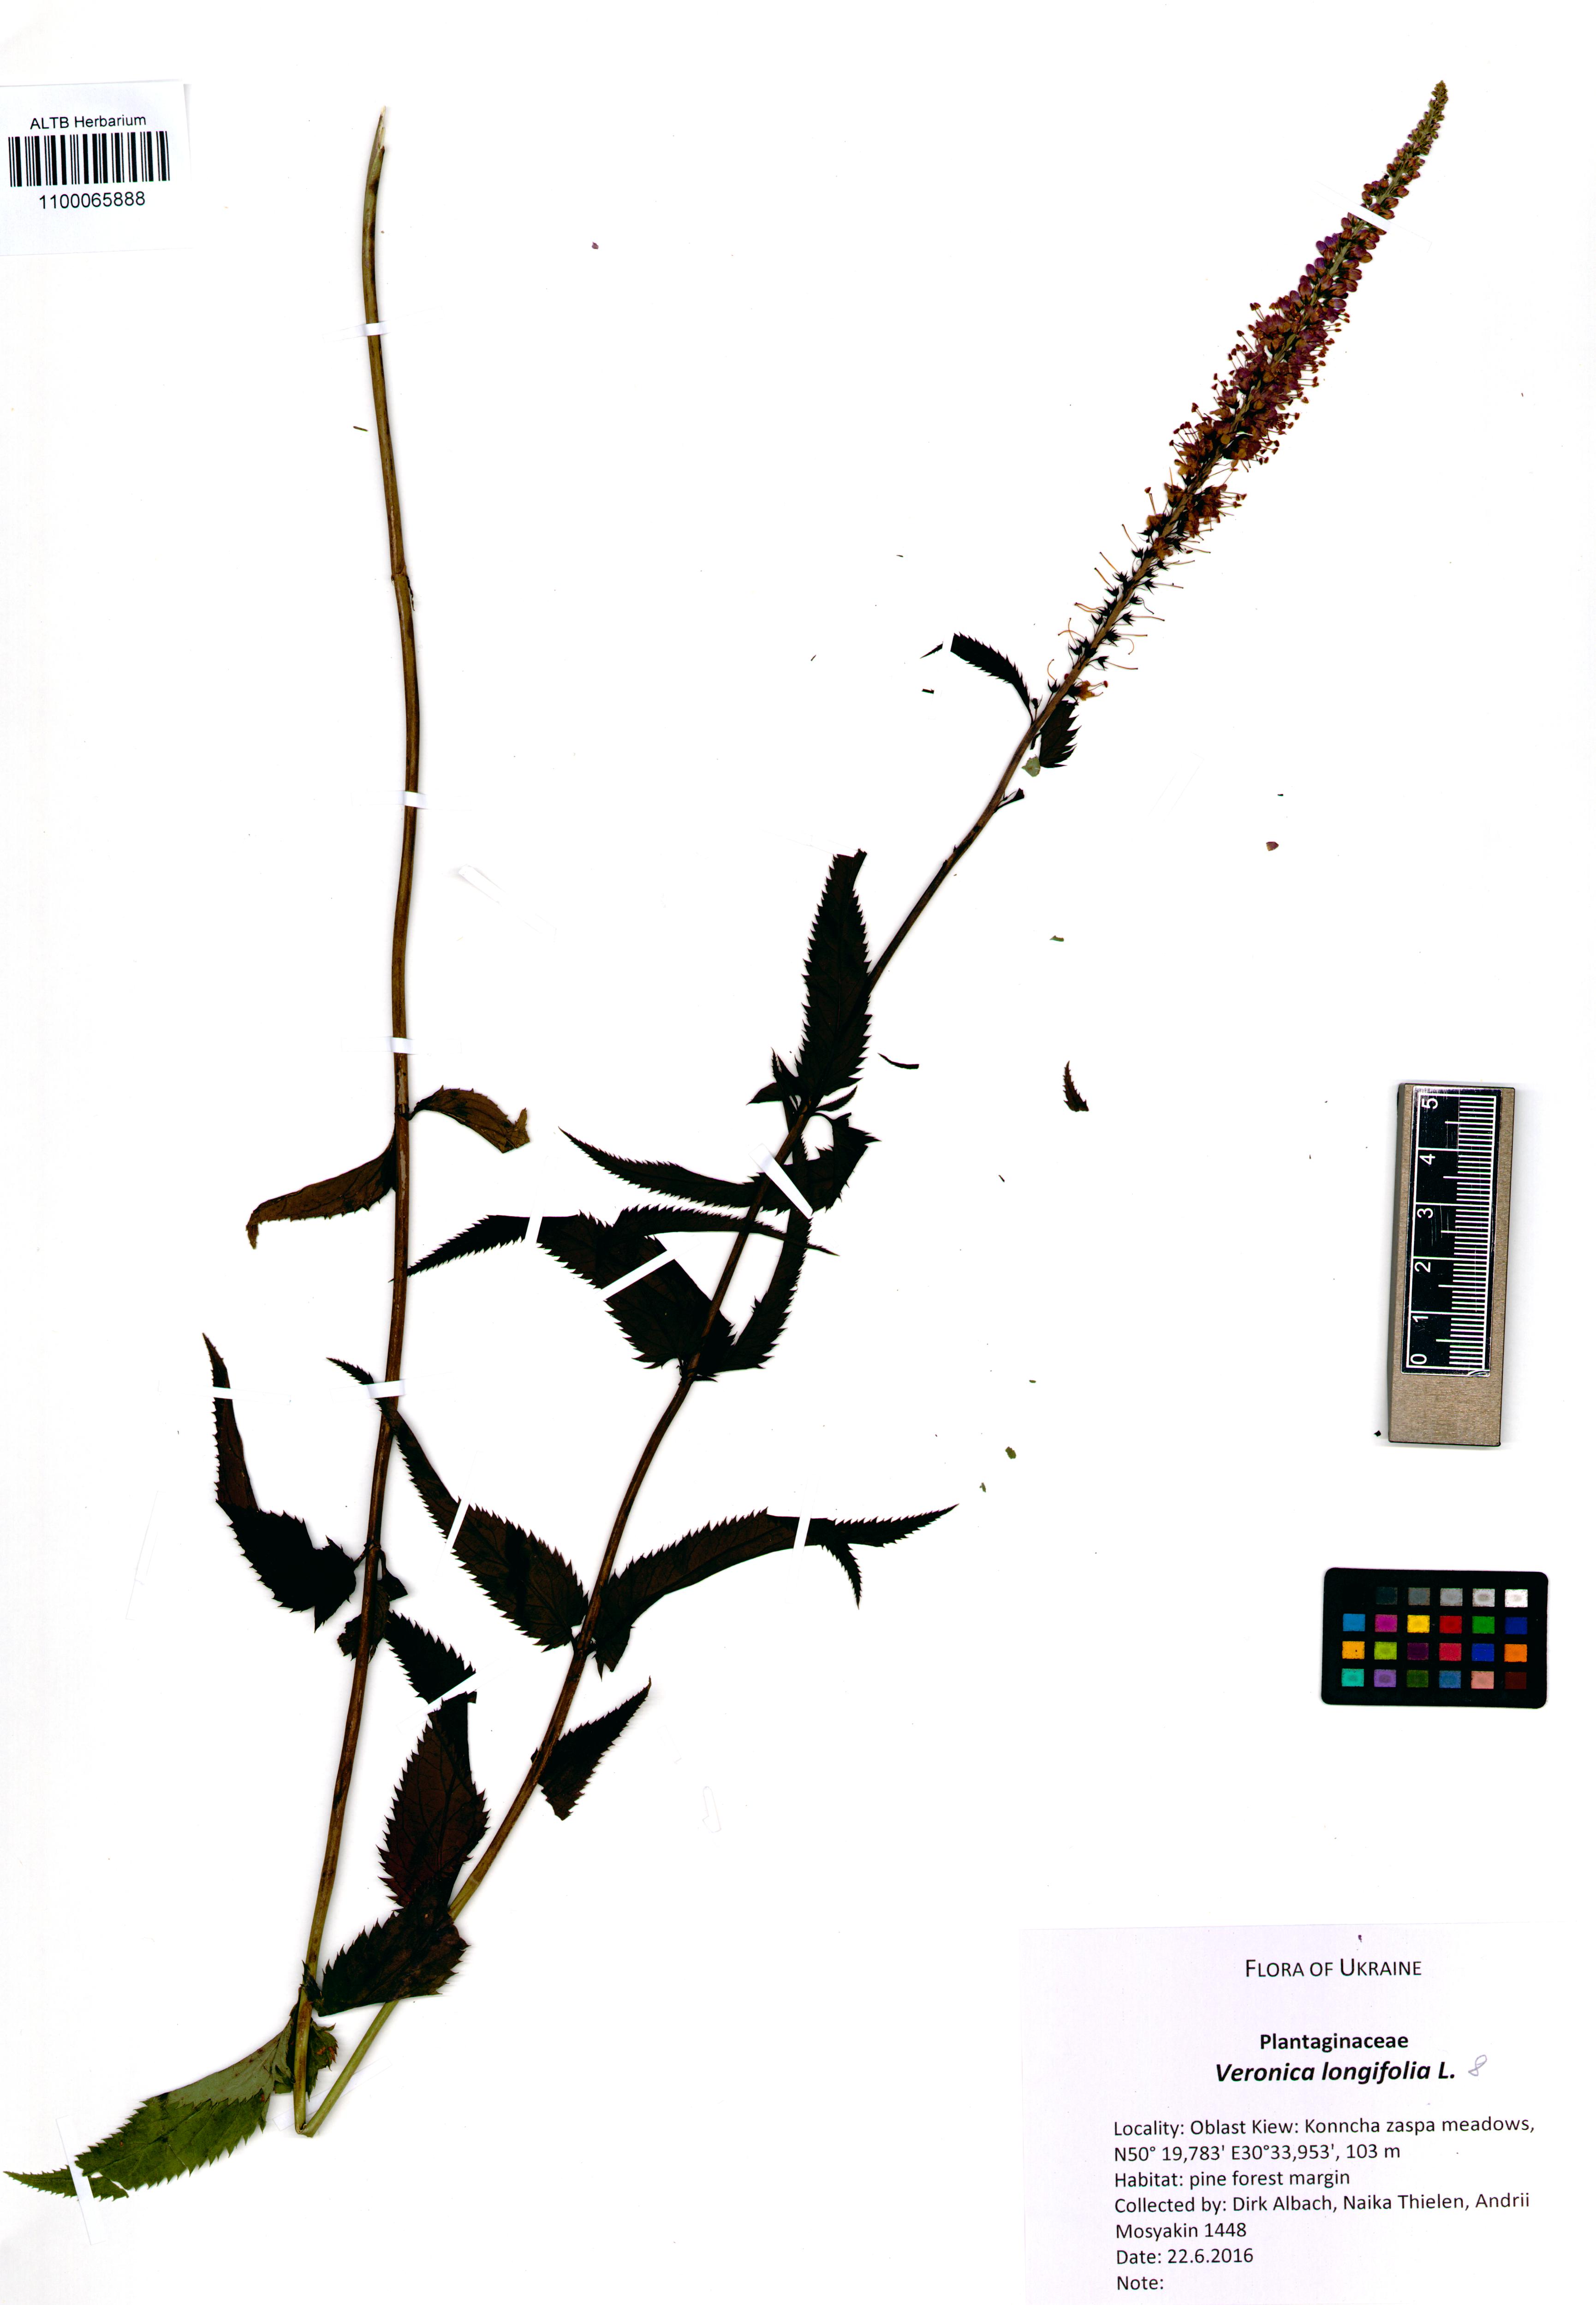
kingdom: Plantae
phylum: Tracheophyta
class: Magnoliopsida
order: Lamiales
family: Plantaginaceae
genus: Veronica
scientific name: Veronica longifolia
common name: Garden speedwell
